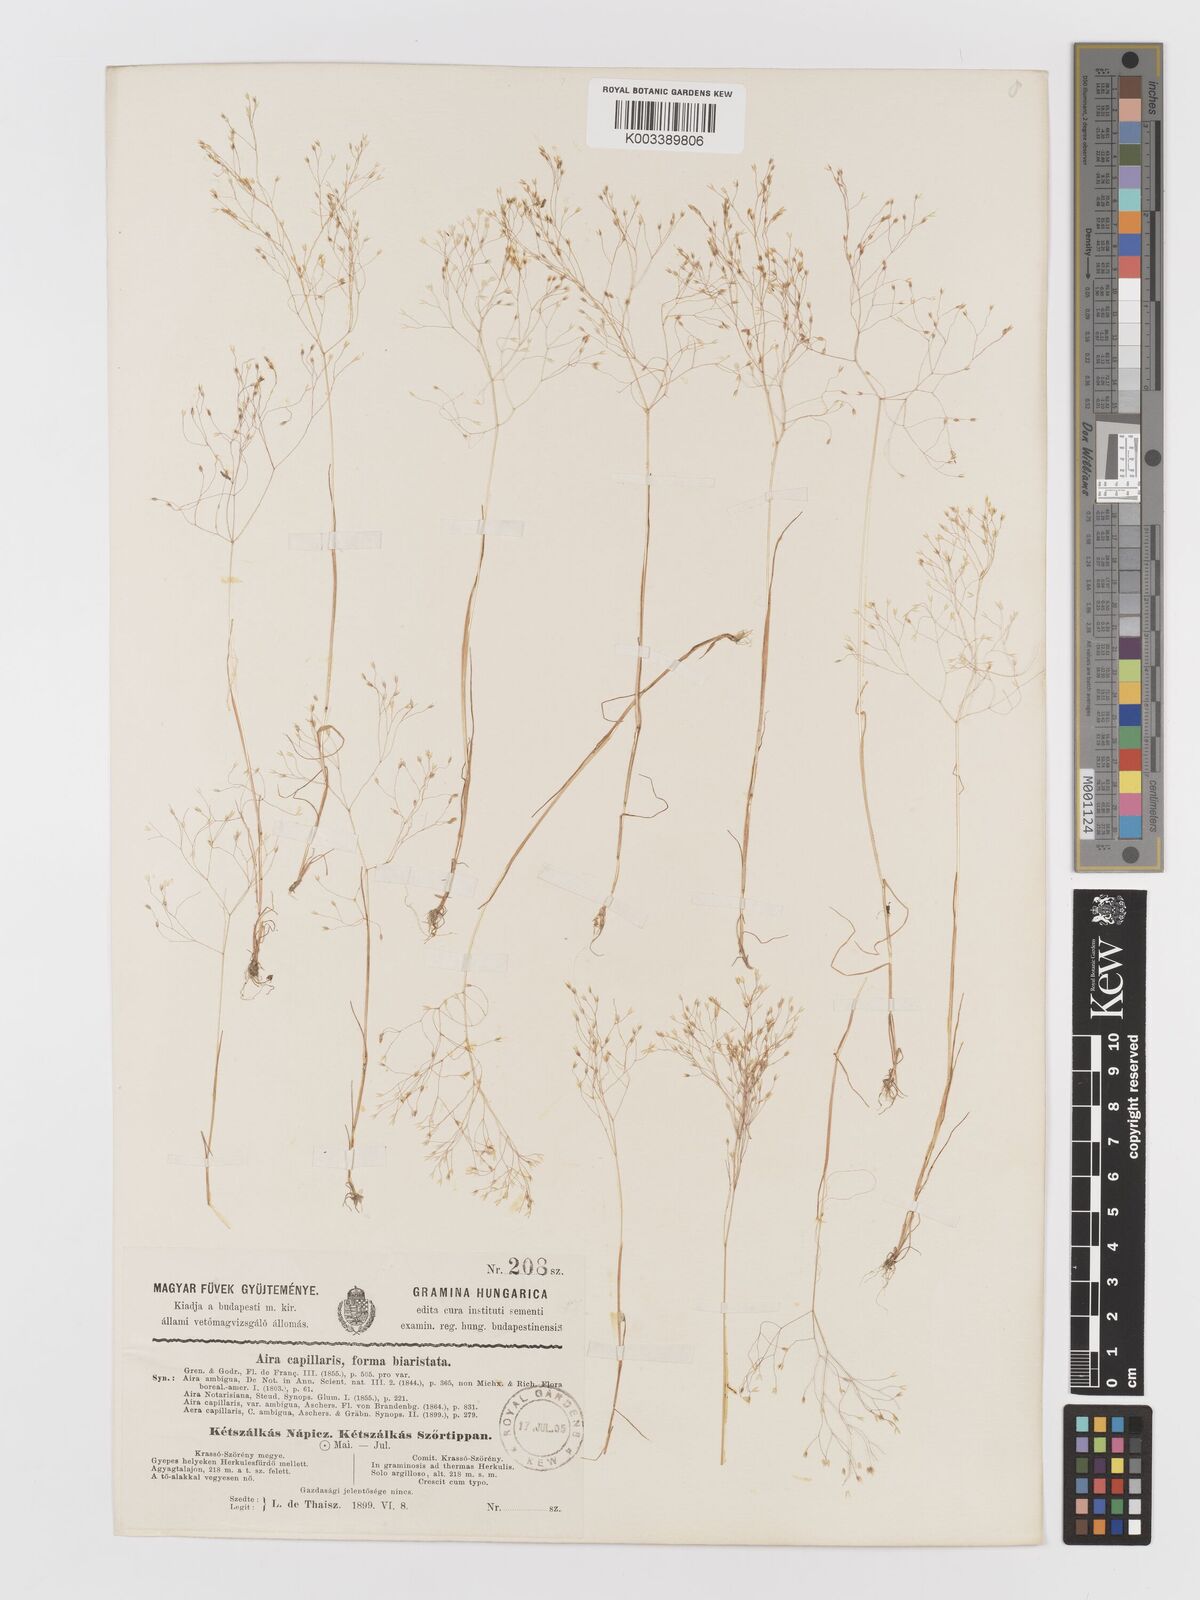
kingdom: Plantae
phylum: Tracheophyta
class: Liliopsida
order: Poales
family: Poaceae
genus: Aira
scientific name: Aira elegans
